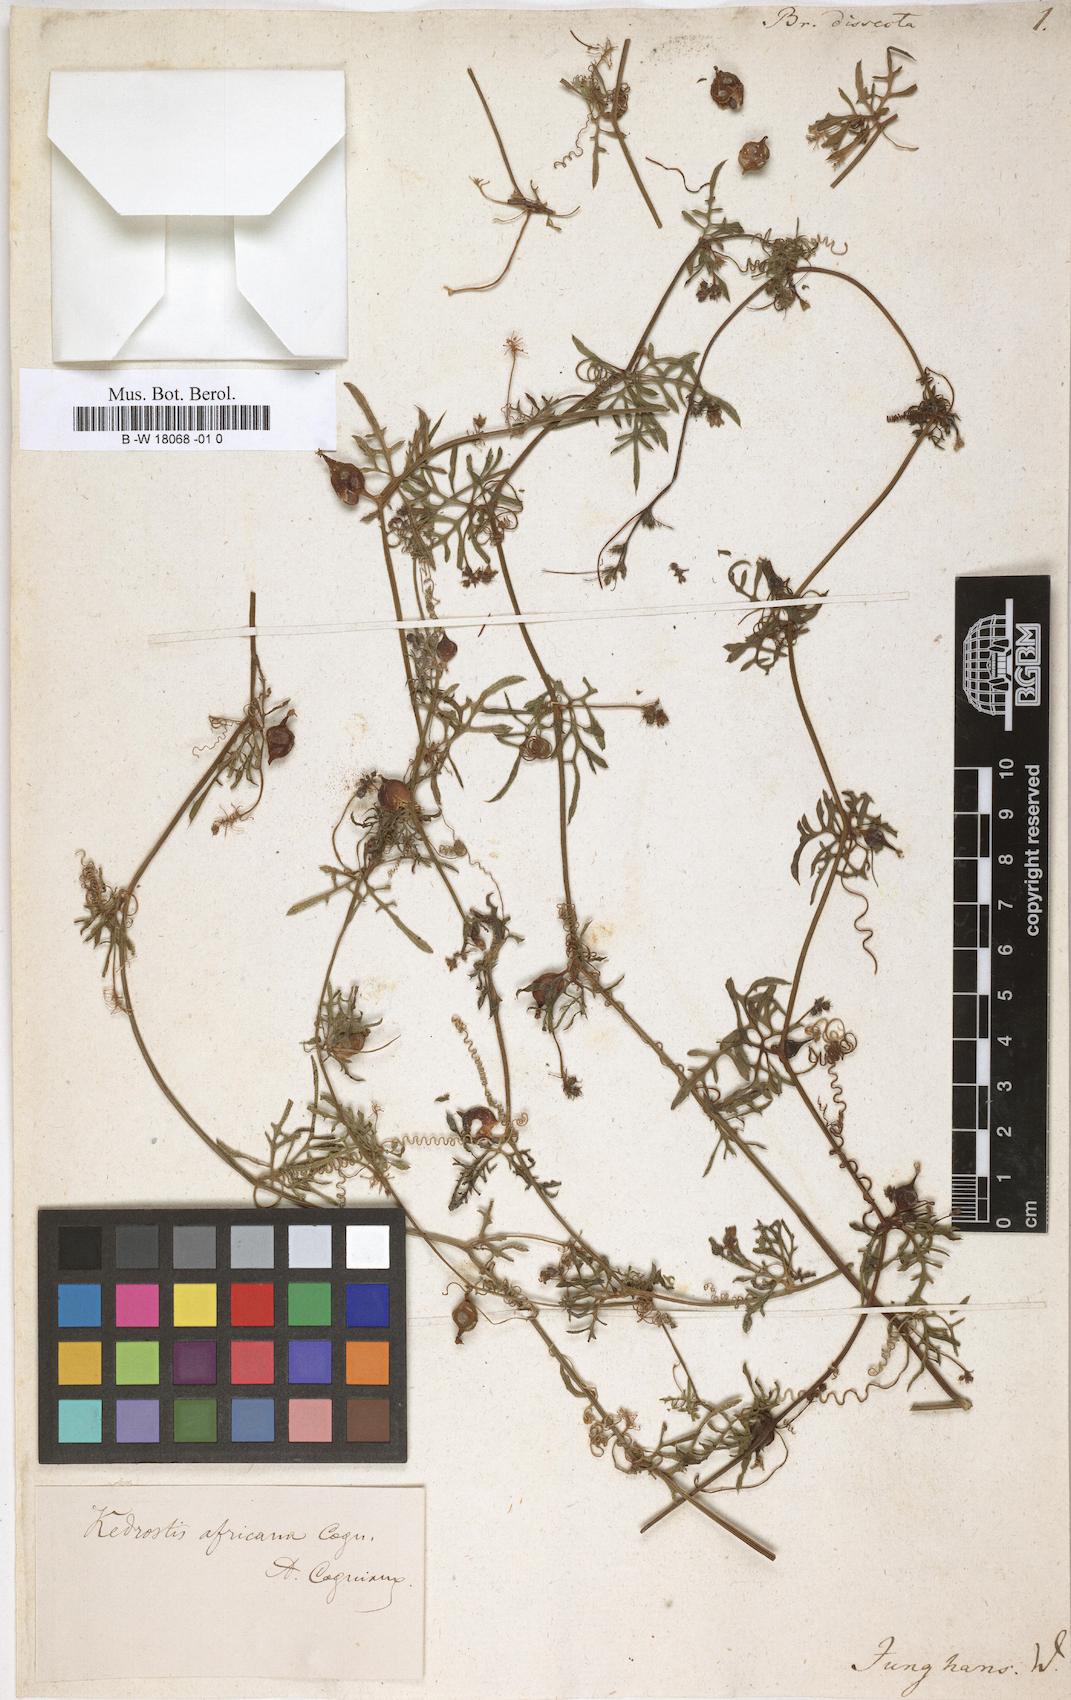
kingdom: Plantae
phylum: Tracheophyta
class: Magnoliopsida
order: Cucurbitales
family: Cucurbitaceae
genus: Kedrostis
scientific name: Kedrostis africana
